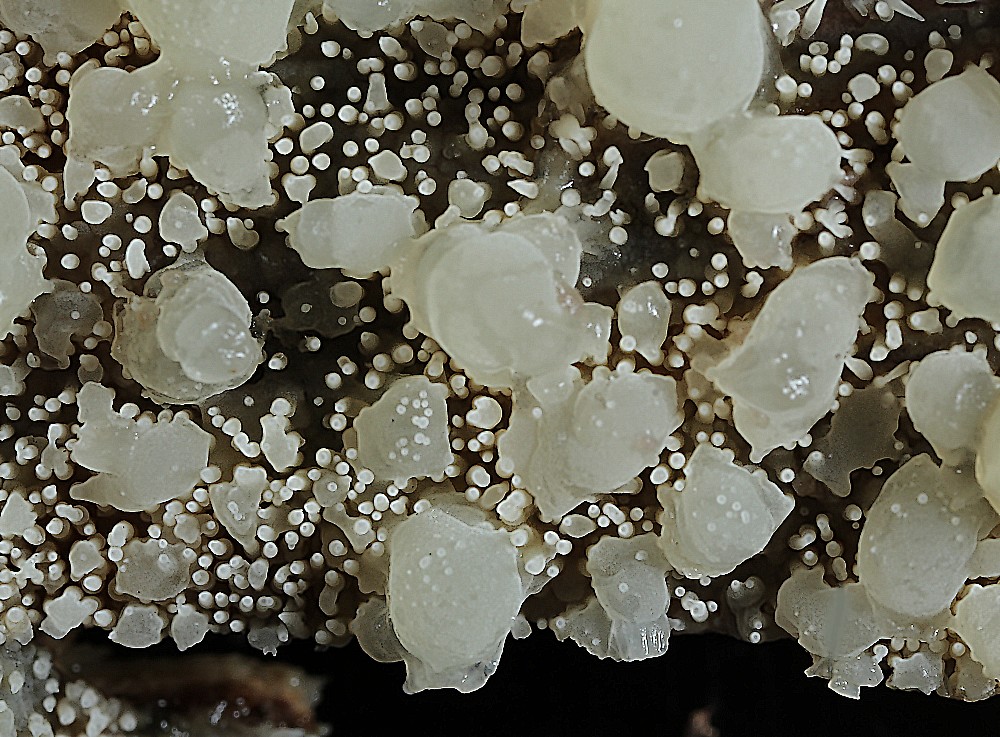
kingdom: Fungi
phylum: Basidiomycota
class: Agaricomycetes
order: Polyporales
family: Meruliaceae
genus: Mycoacia
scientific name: Mycoacia
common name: vokspig
